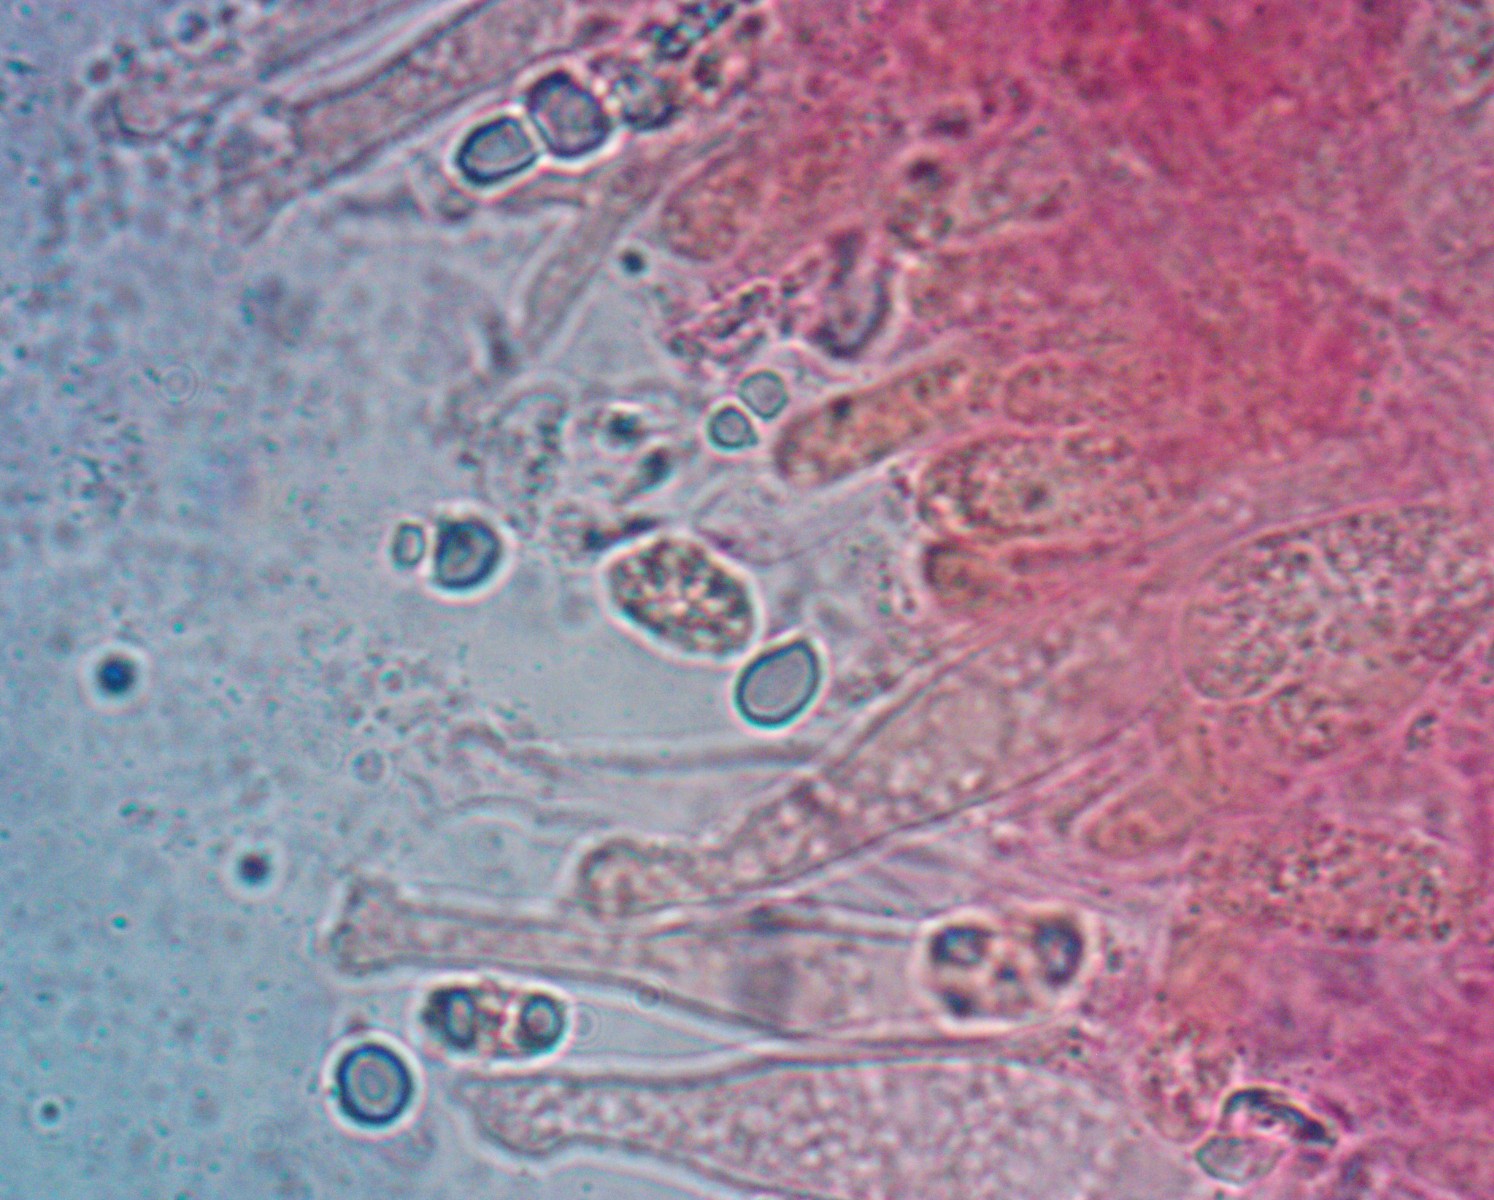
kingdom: Fungi
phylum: Basidiomycota
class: Agaricomycetes
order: Agaricales
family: Mycenaceae
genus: Mycena
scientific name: Mycena galopus
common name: hvidmælket huesvamp
